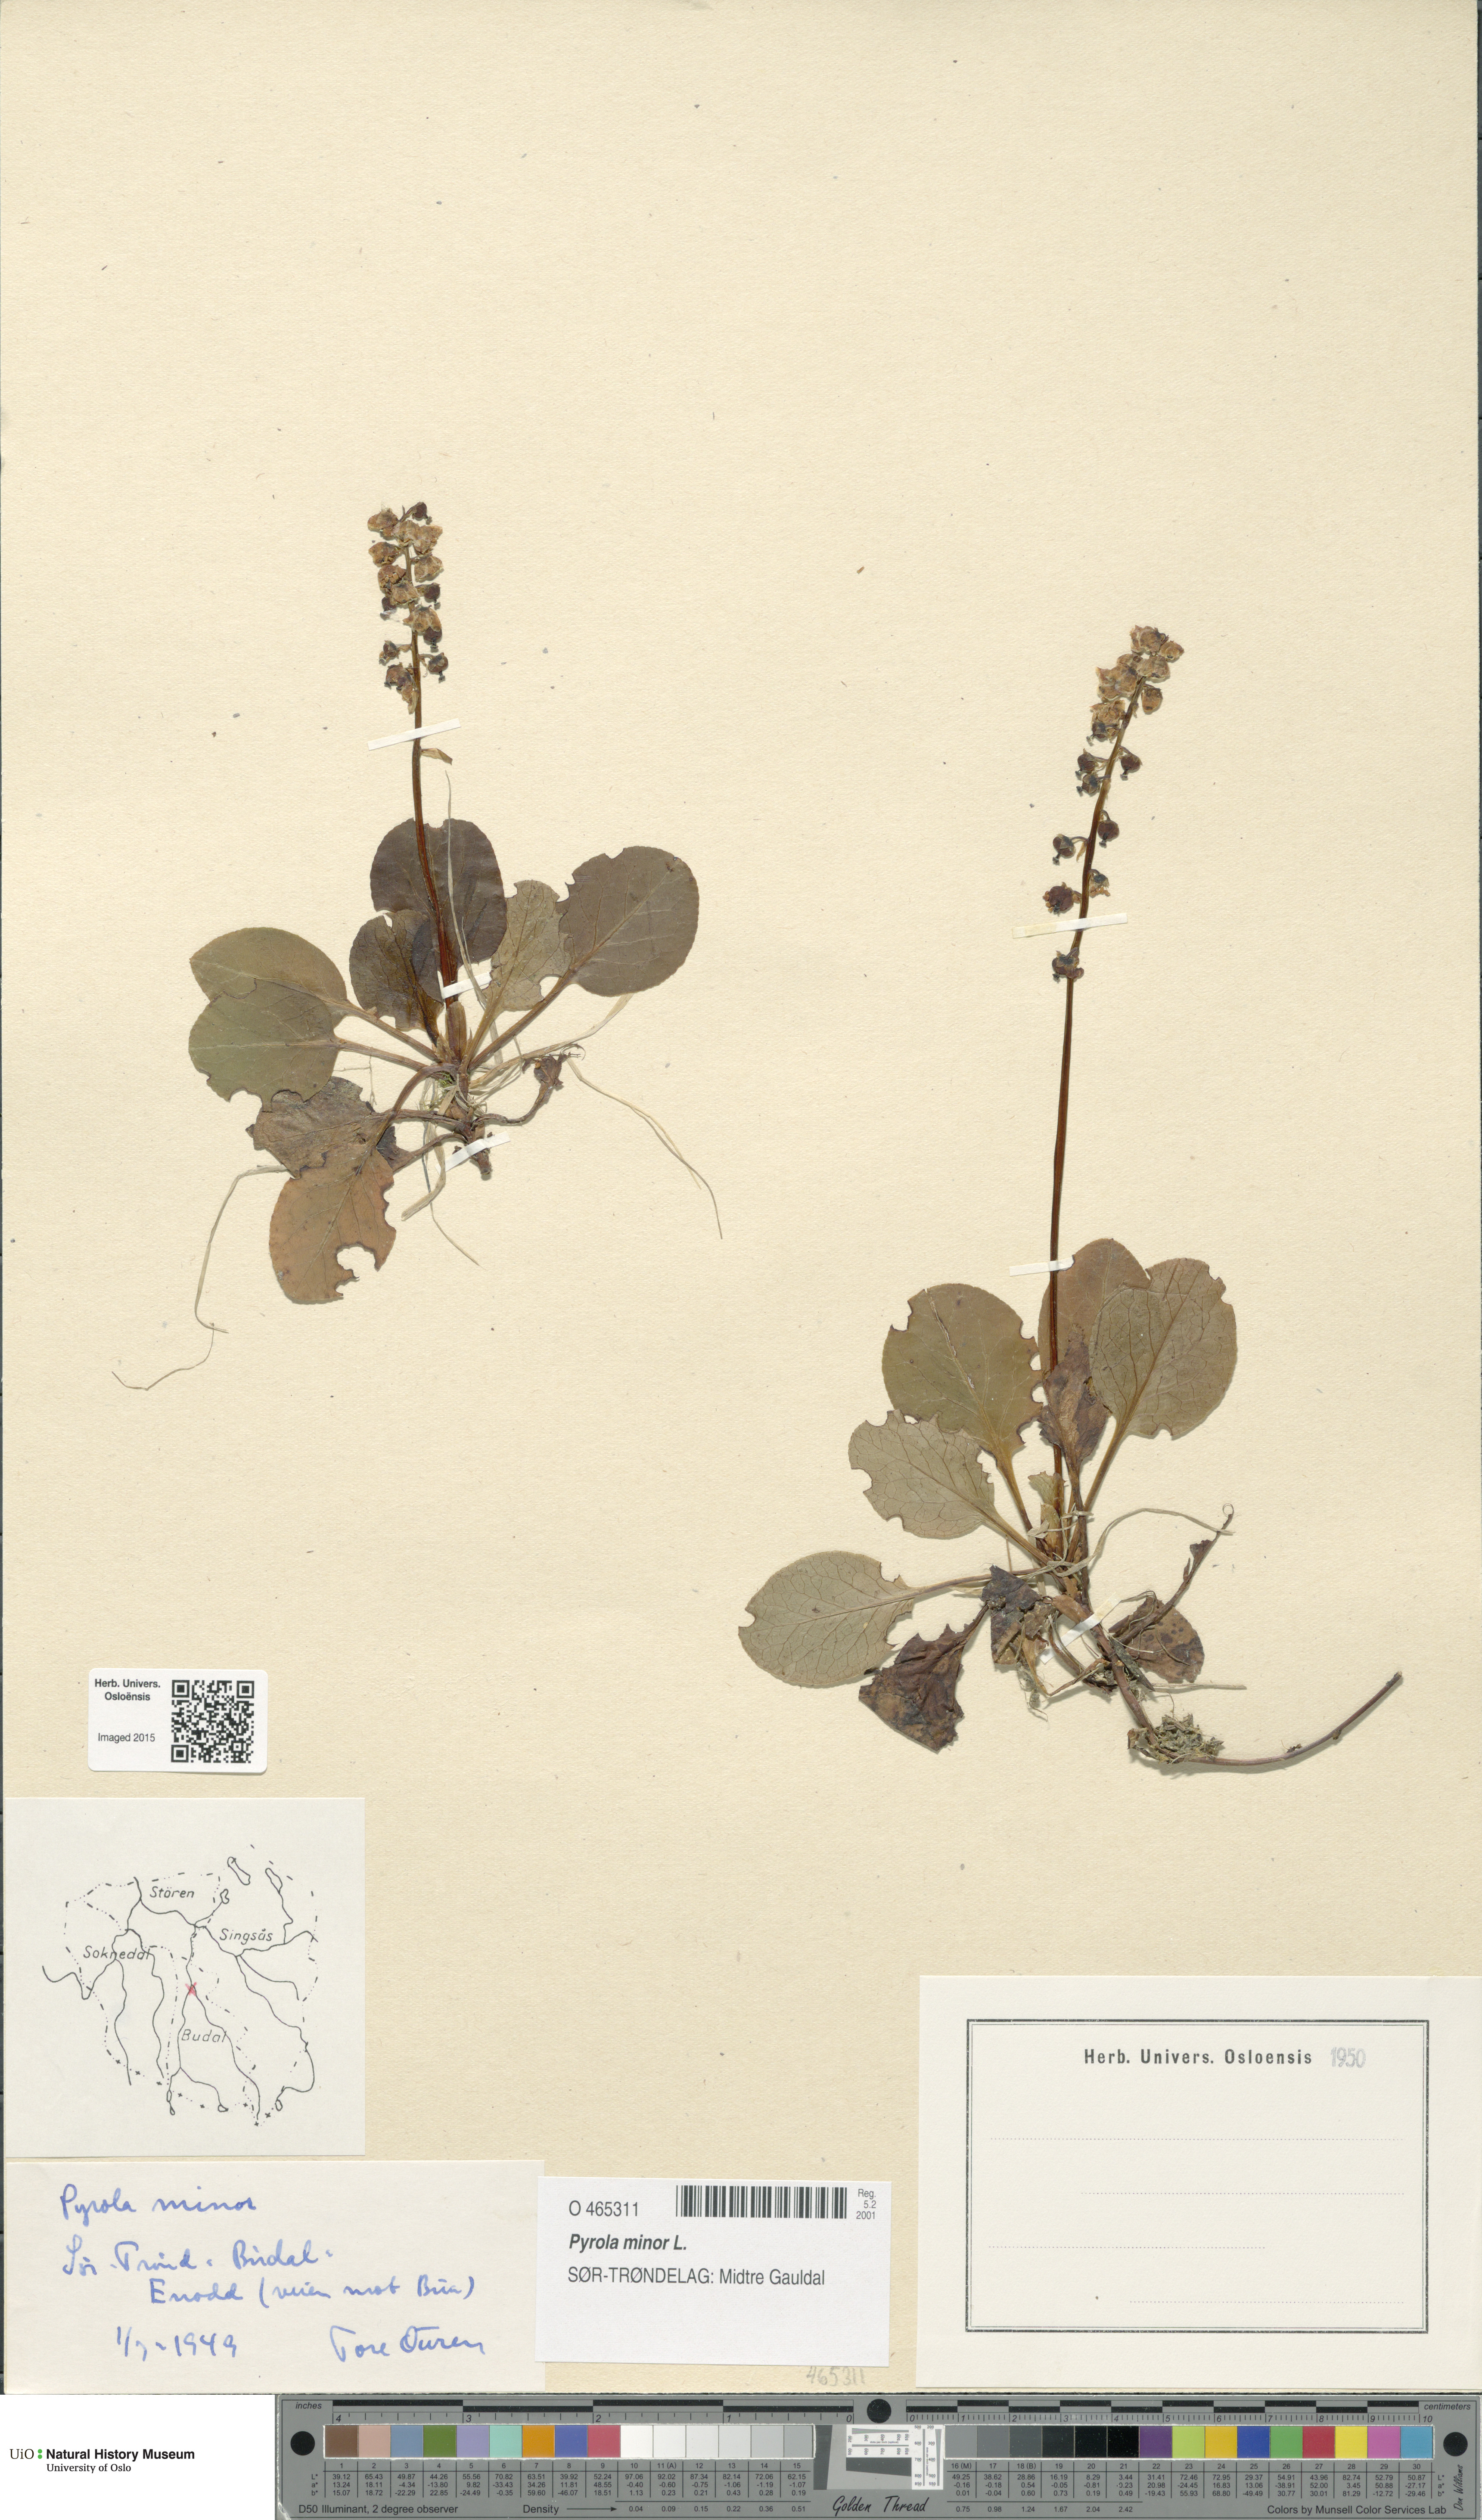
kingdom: Plantae
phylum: Tracheophyta
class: Magnoliopsida
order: Ericales
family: Ericaceae
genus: Pyrola
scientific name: Pyrola minor
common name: Common wintergreen
